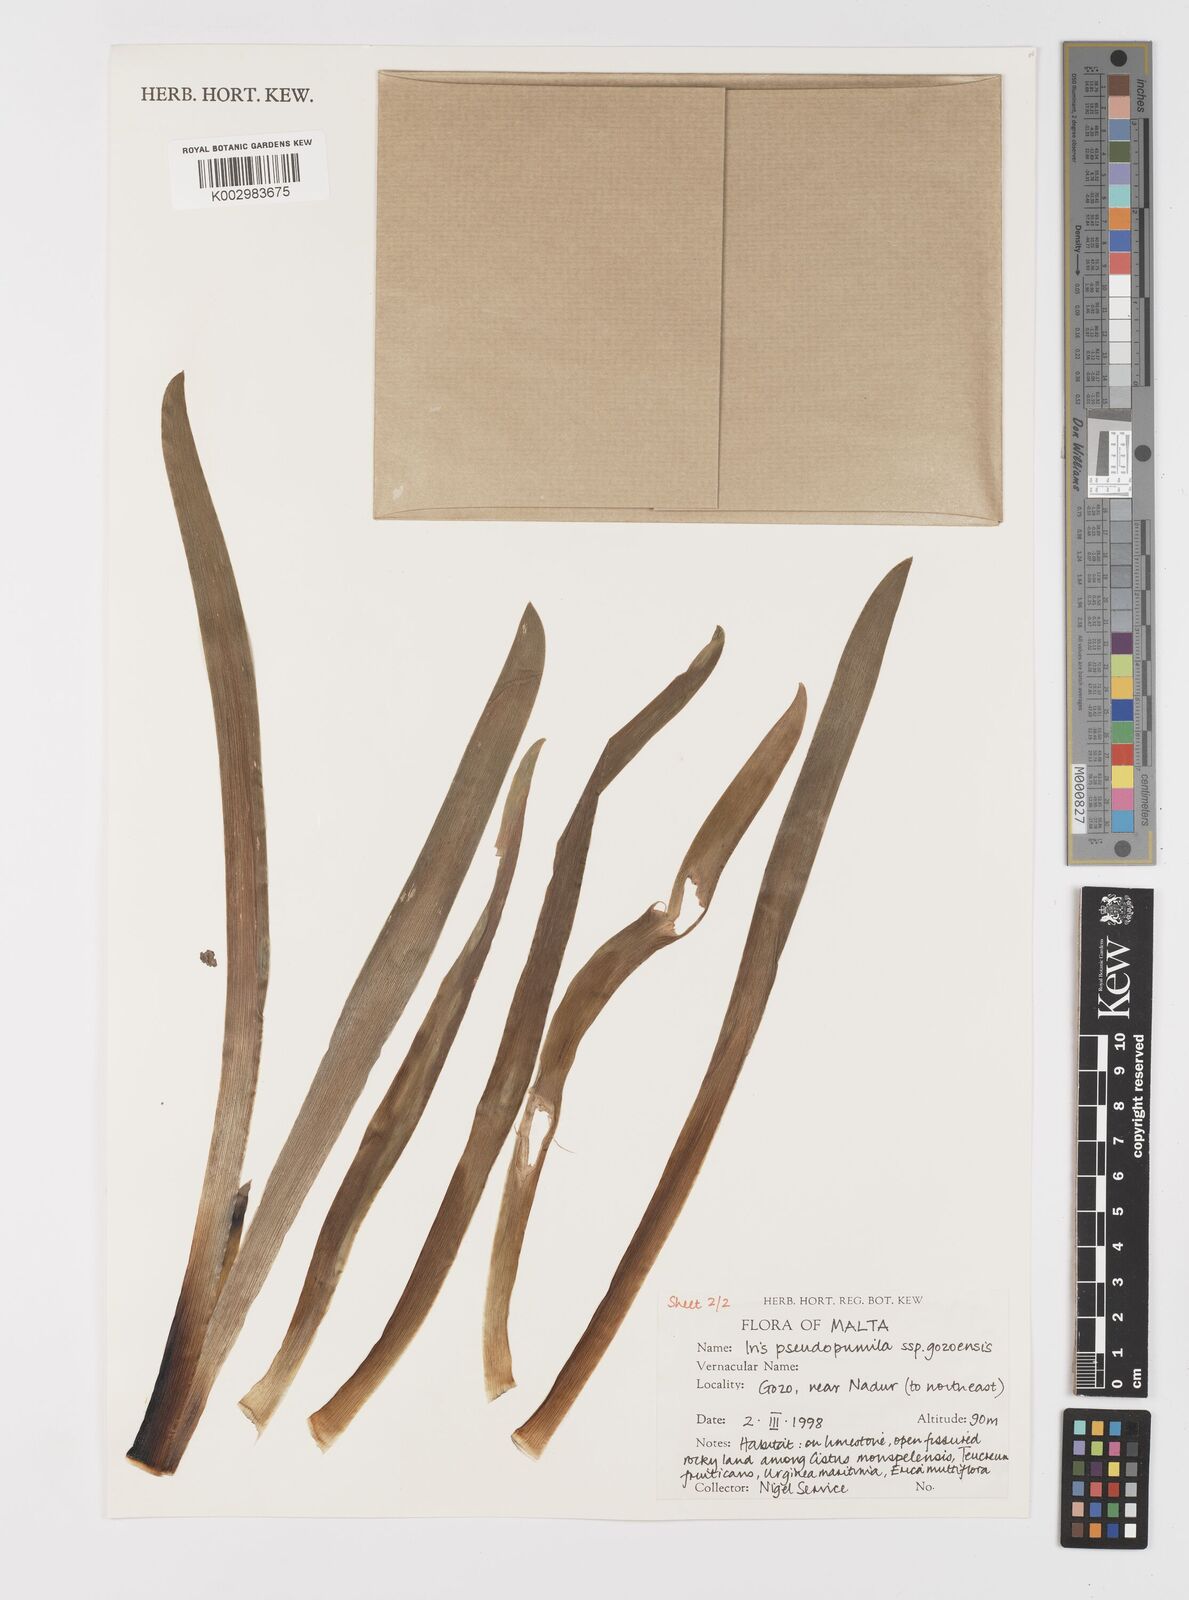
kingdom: Plantae
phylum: Tracheophyta
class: Liliopsida
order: Asparagales
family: Iridaceae
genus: Iris
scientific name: Iris pseudopumila
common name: Southern dwarf iris
